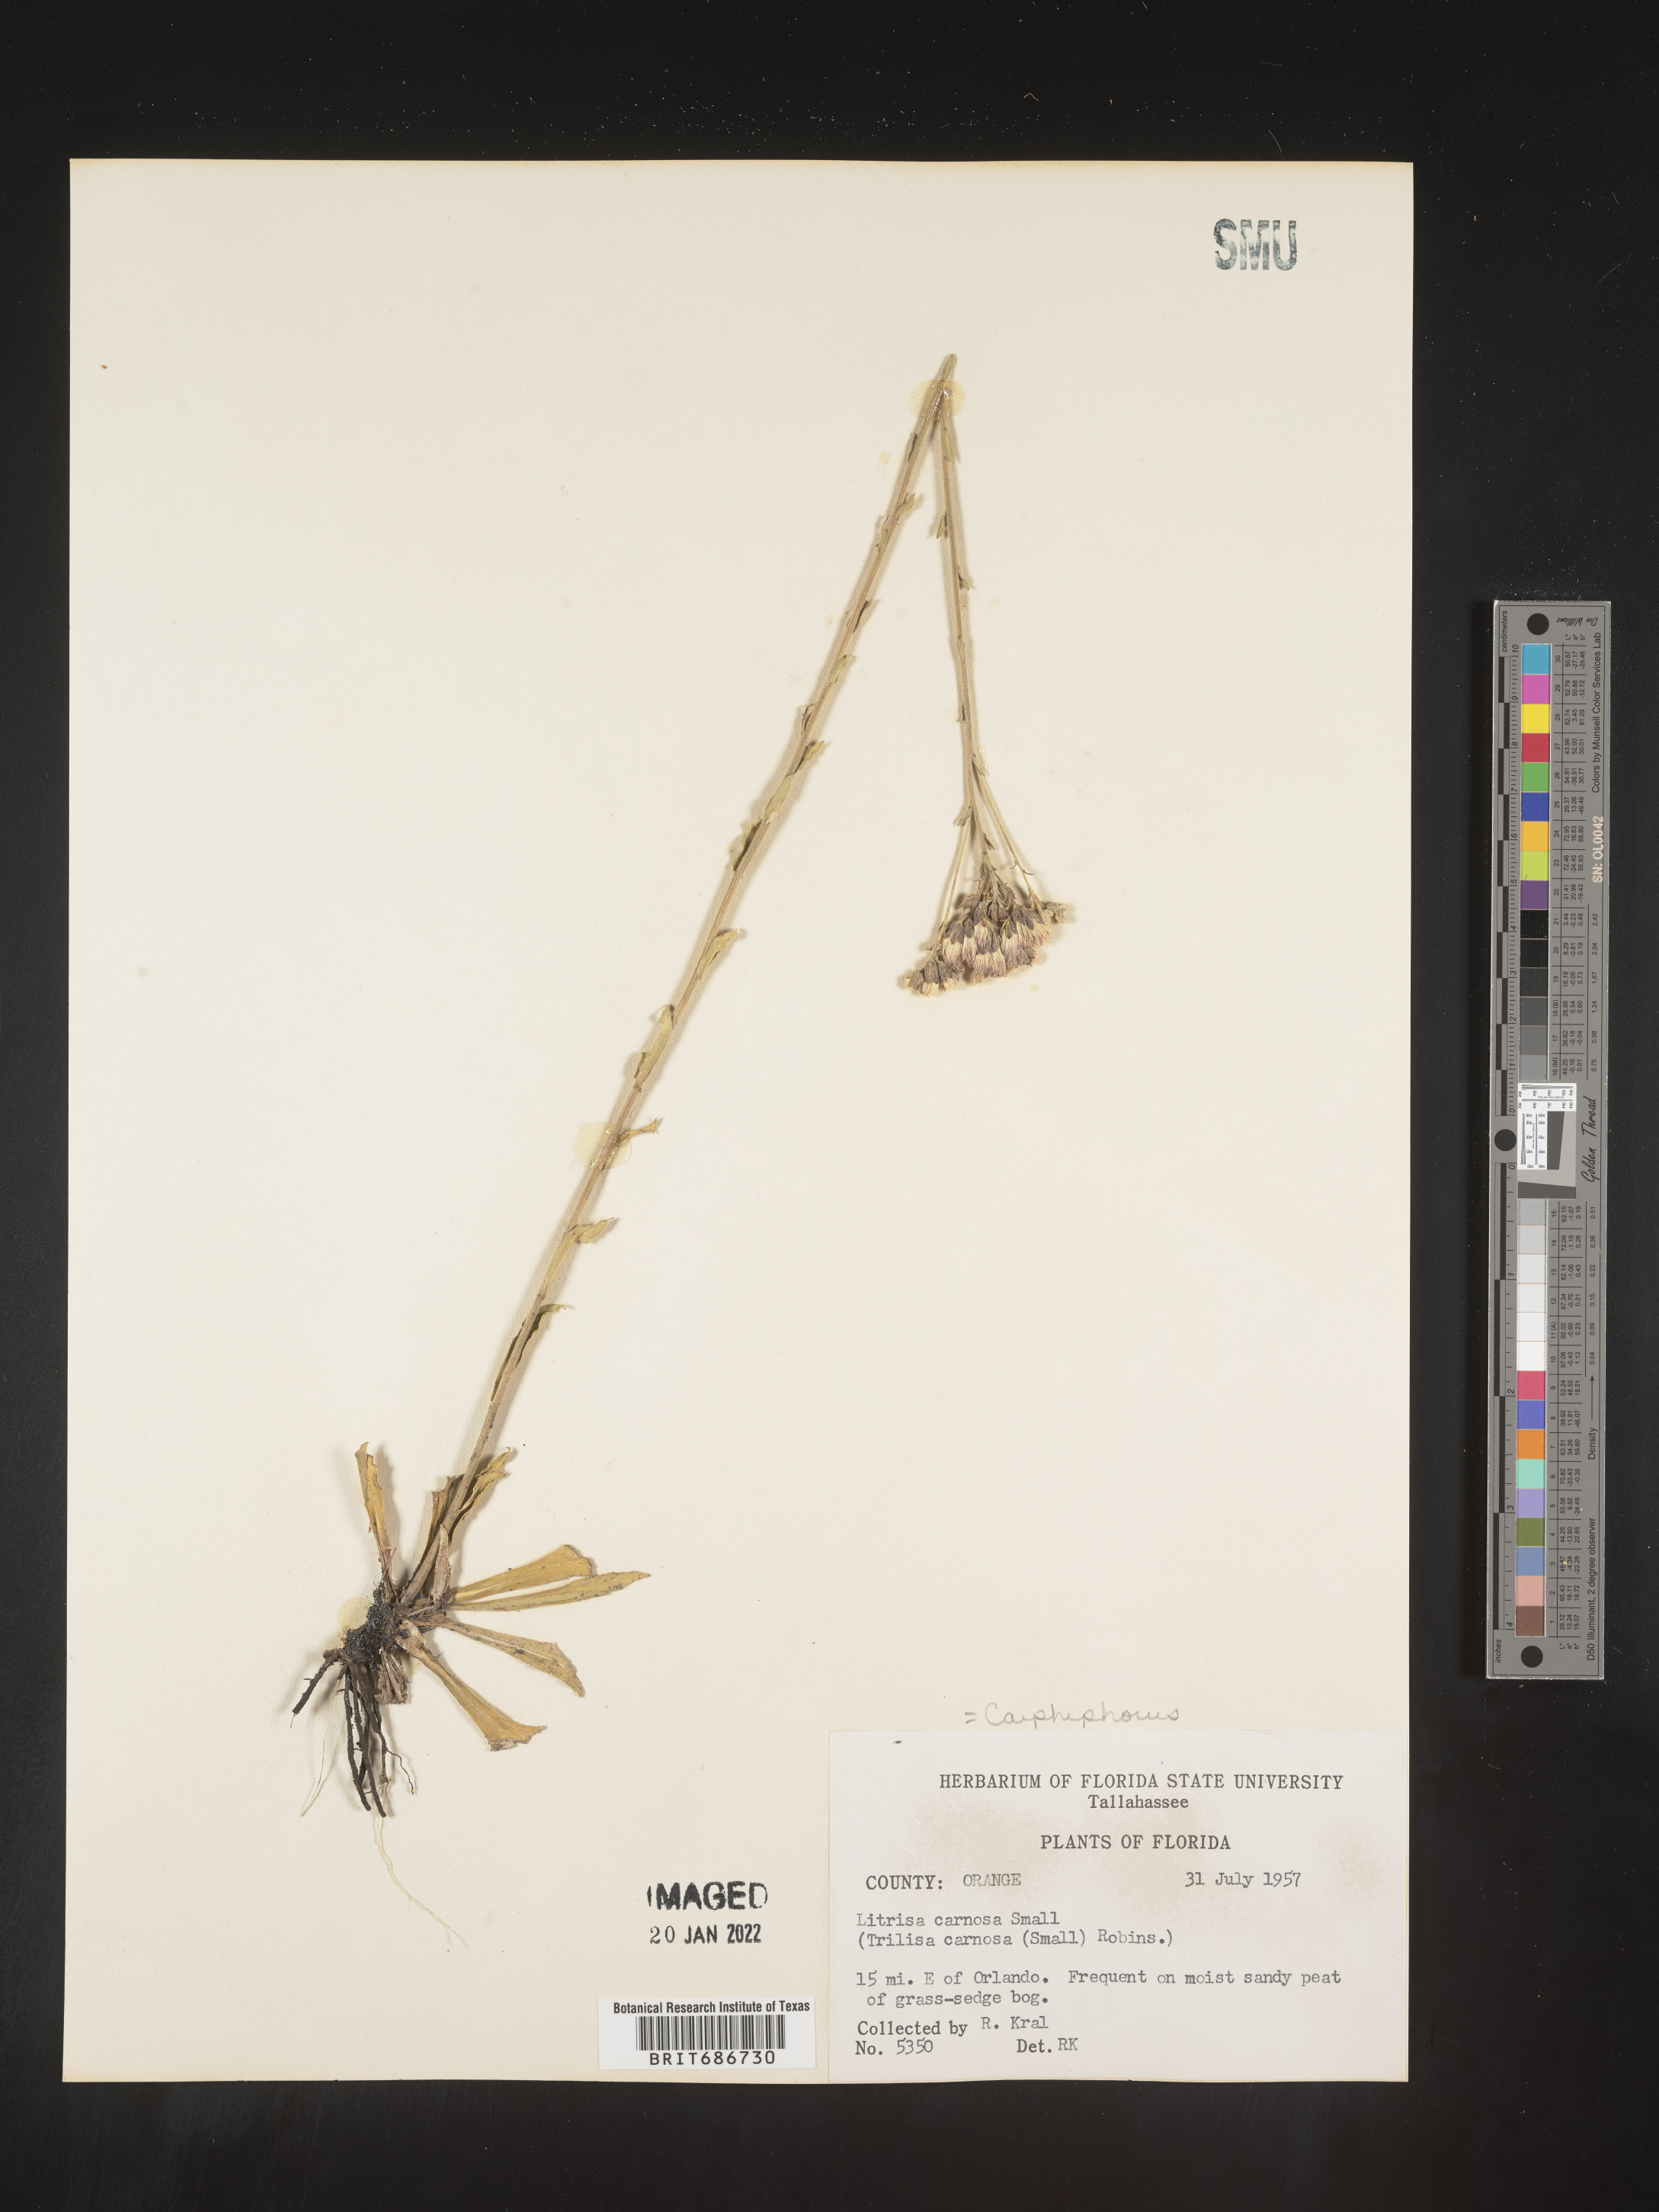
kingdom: Plantae
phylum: Tracheophyta
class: Magnoliopsida
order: Asterales
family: Asteraceae
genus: Carphephorus
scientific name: Carphephorus carnosus
